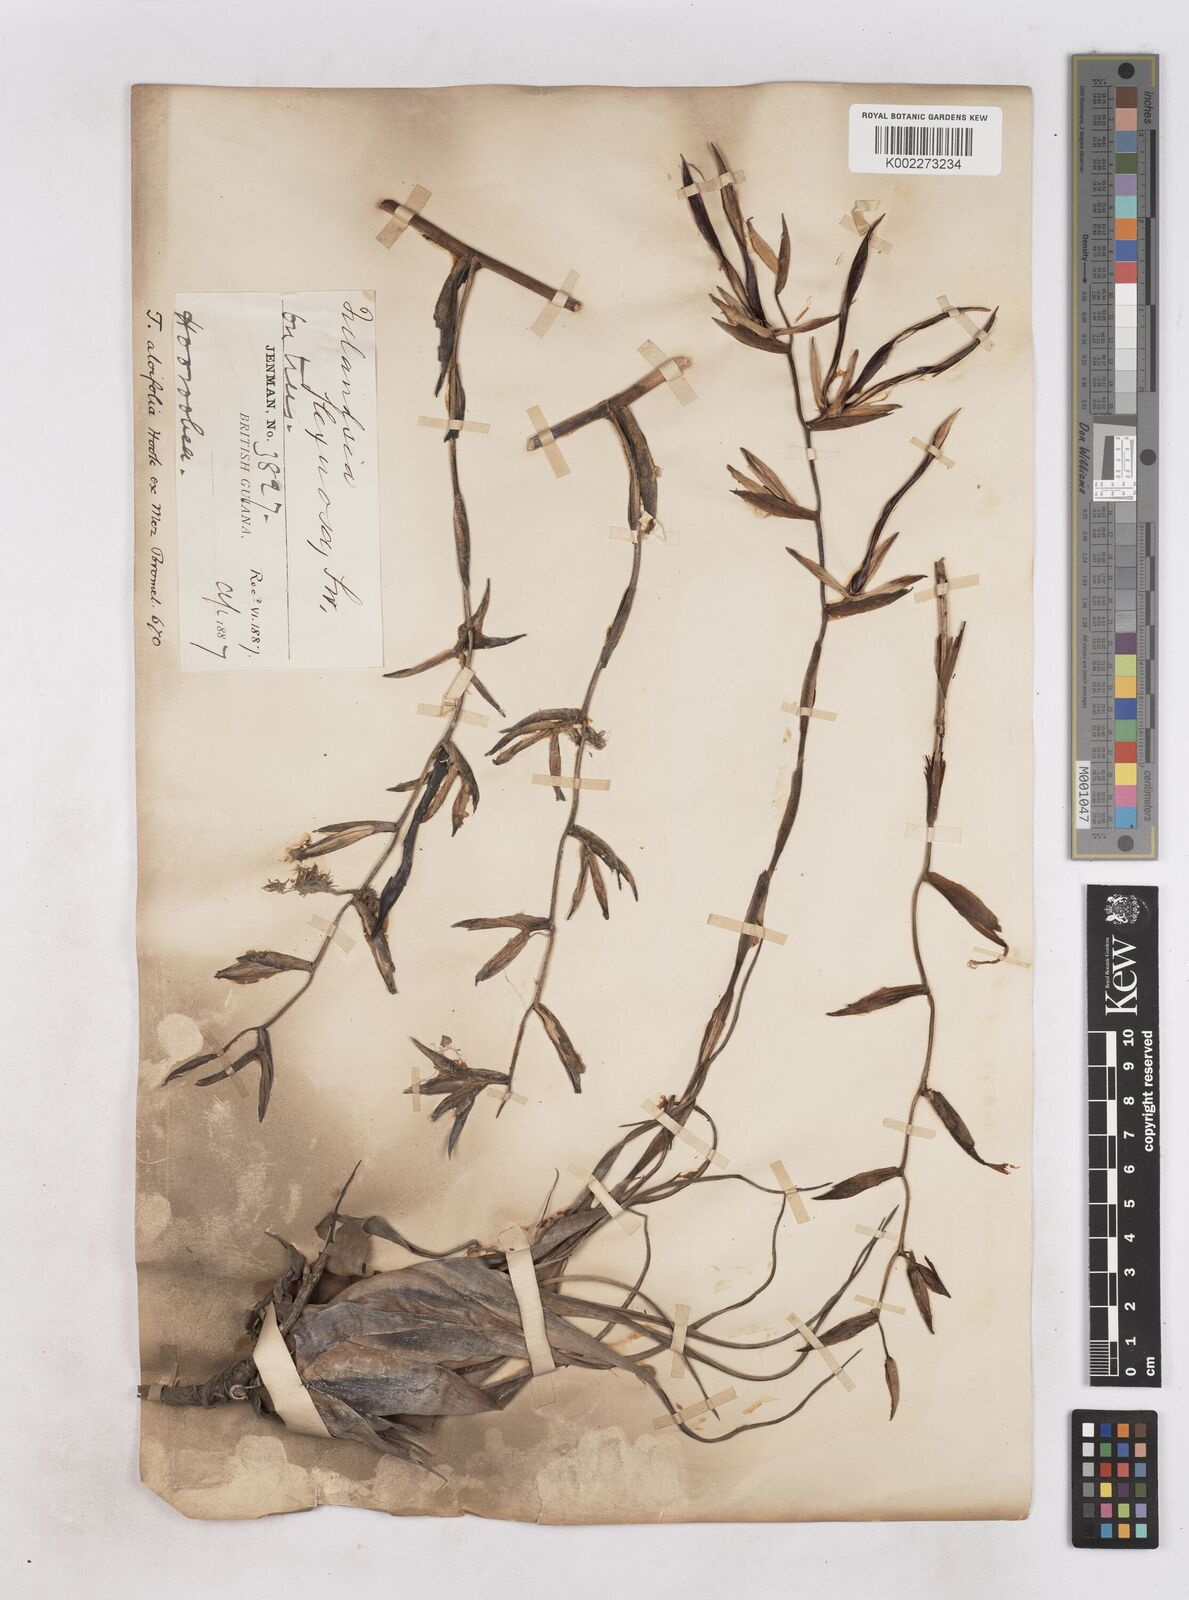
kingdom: Plantae
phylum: Tracheophyta
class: Liliopsida
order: Poales
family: Bromeliaceae
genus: Tillandsia
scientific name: Tillandsia flexuosa
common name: Banded airplant
